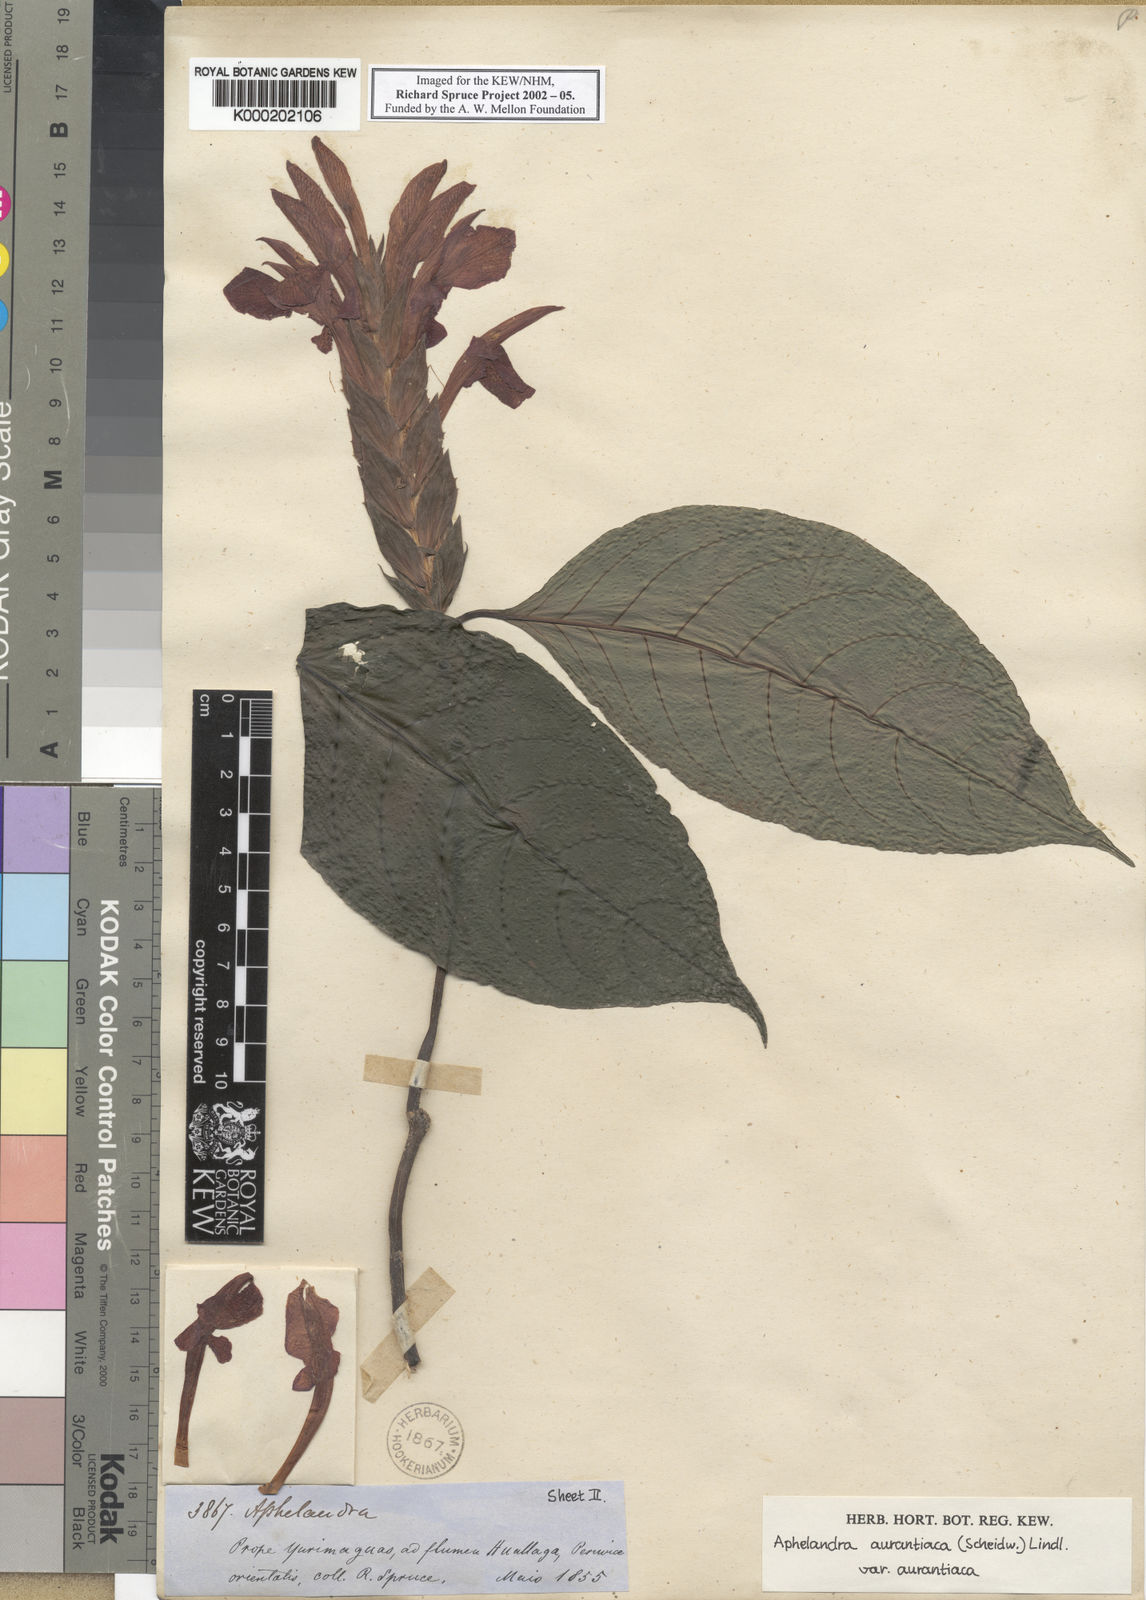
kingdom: Plantae
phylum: Tracheophyta
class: Magnoliopsida
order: Lamiales
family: Acanthaceae
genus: Aphelandra
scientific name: Aphelandra aurantiaca
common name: Fiery spike
